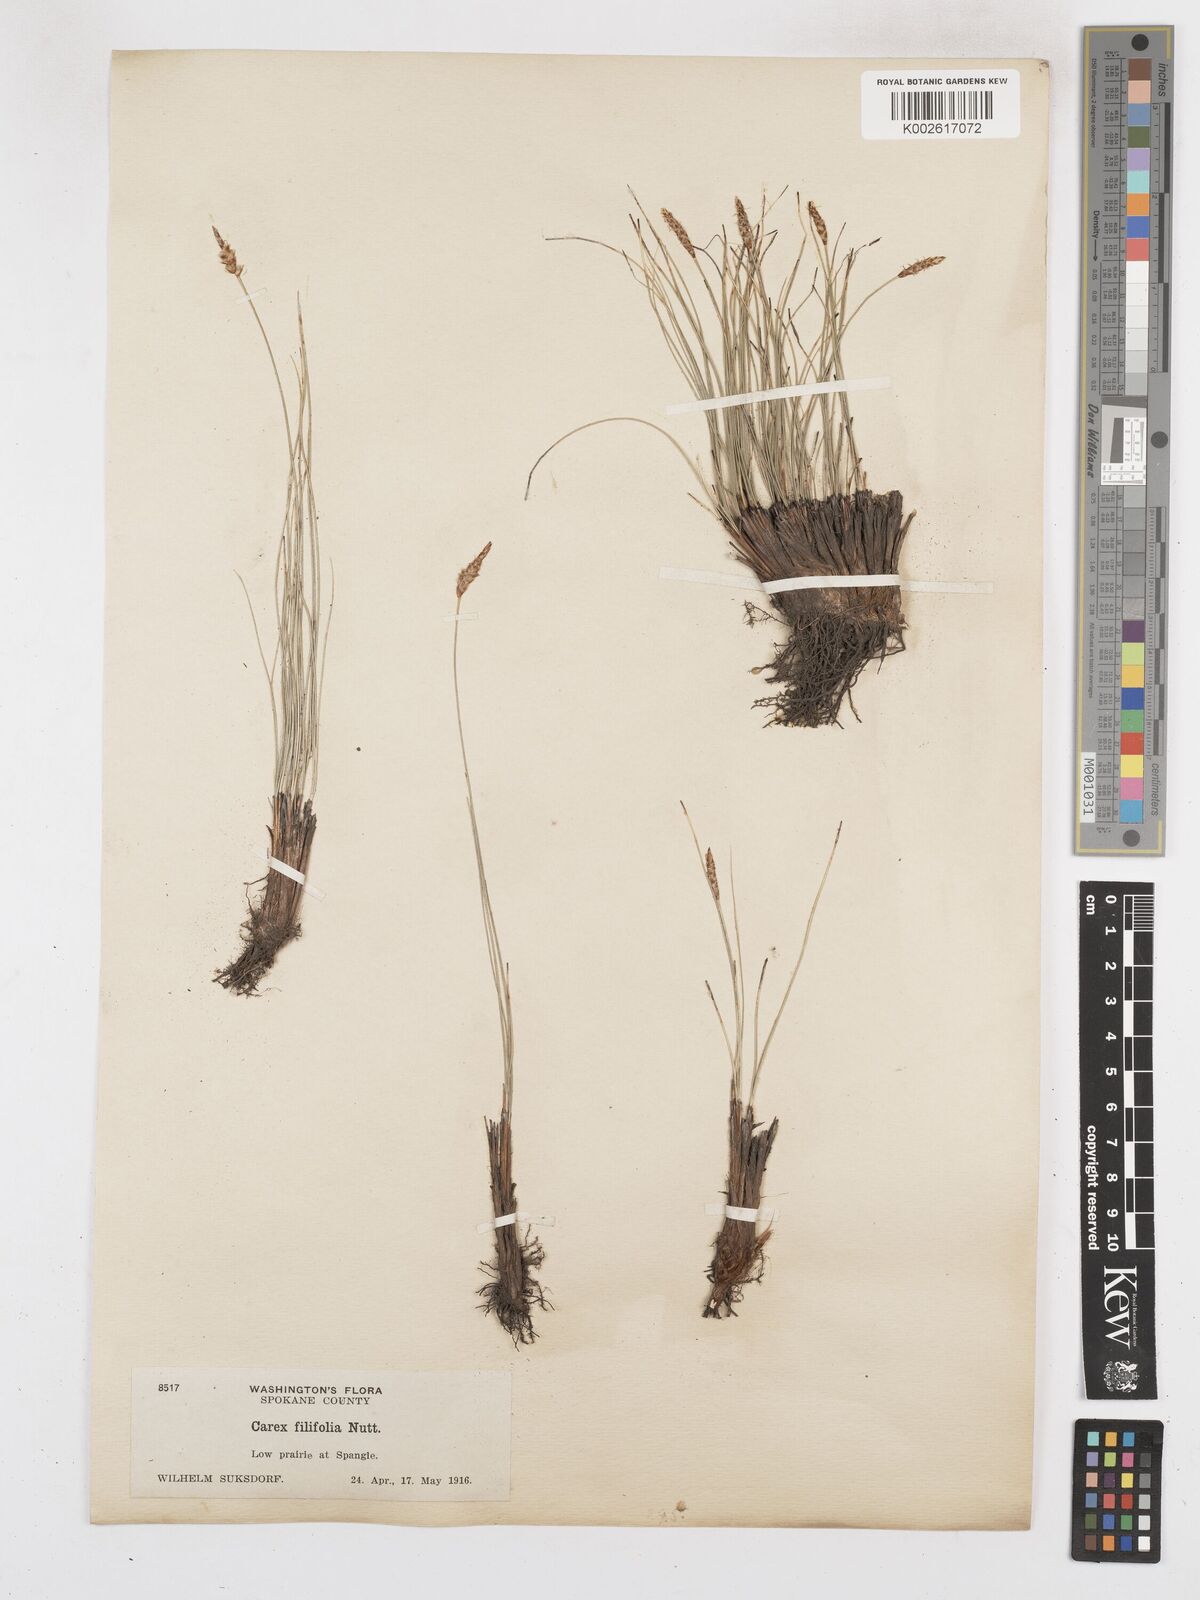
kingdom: Plantae
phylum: Tracheophyta
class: Liliopsida
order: Poales
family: Cyperaceae
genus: Carex
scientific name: Carex filifolia
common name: Threadleaf sedge
